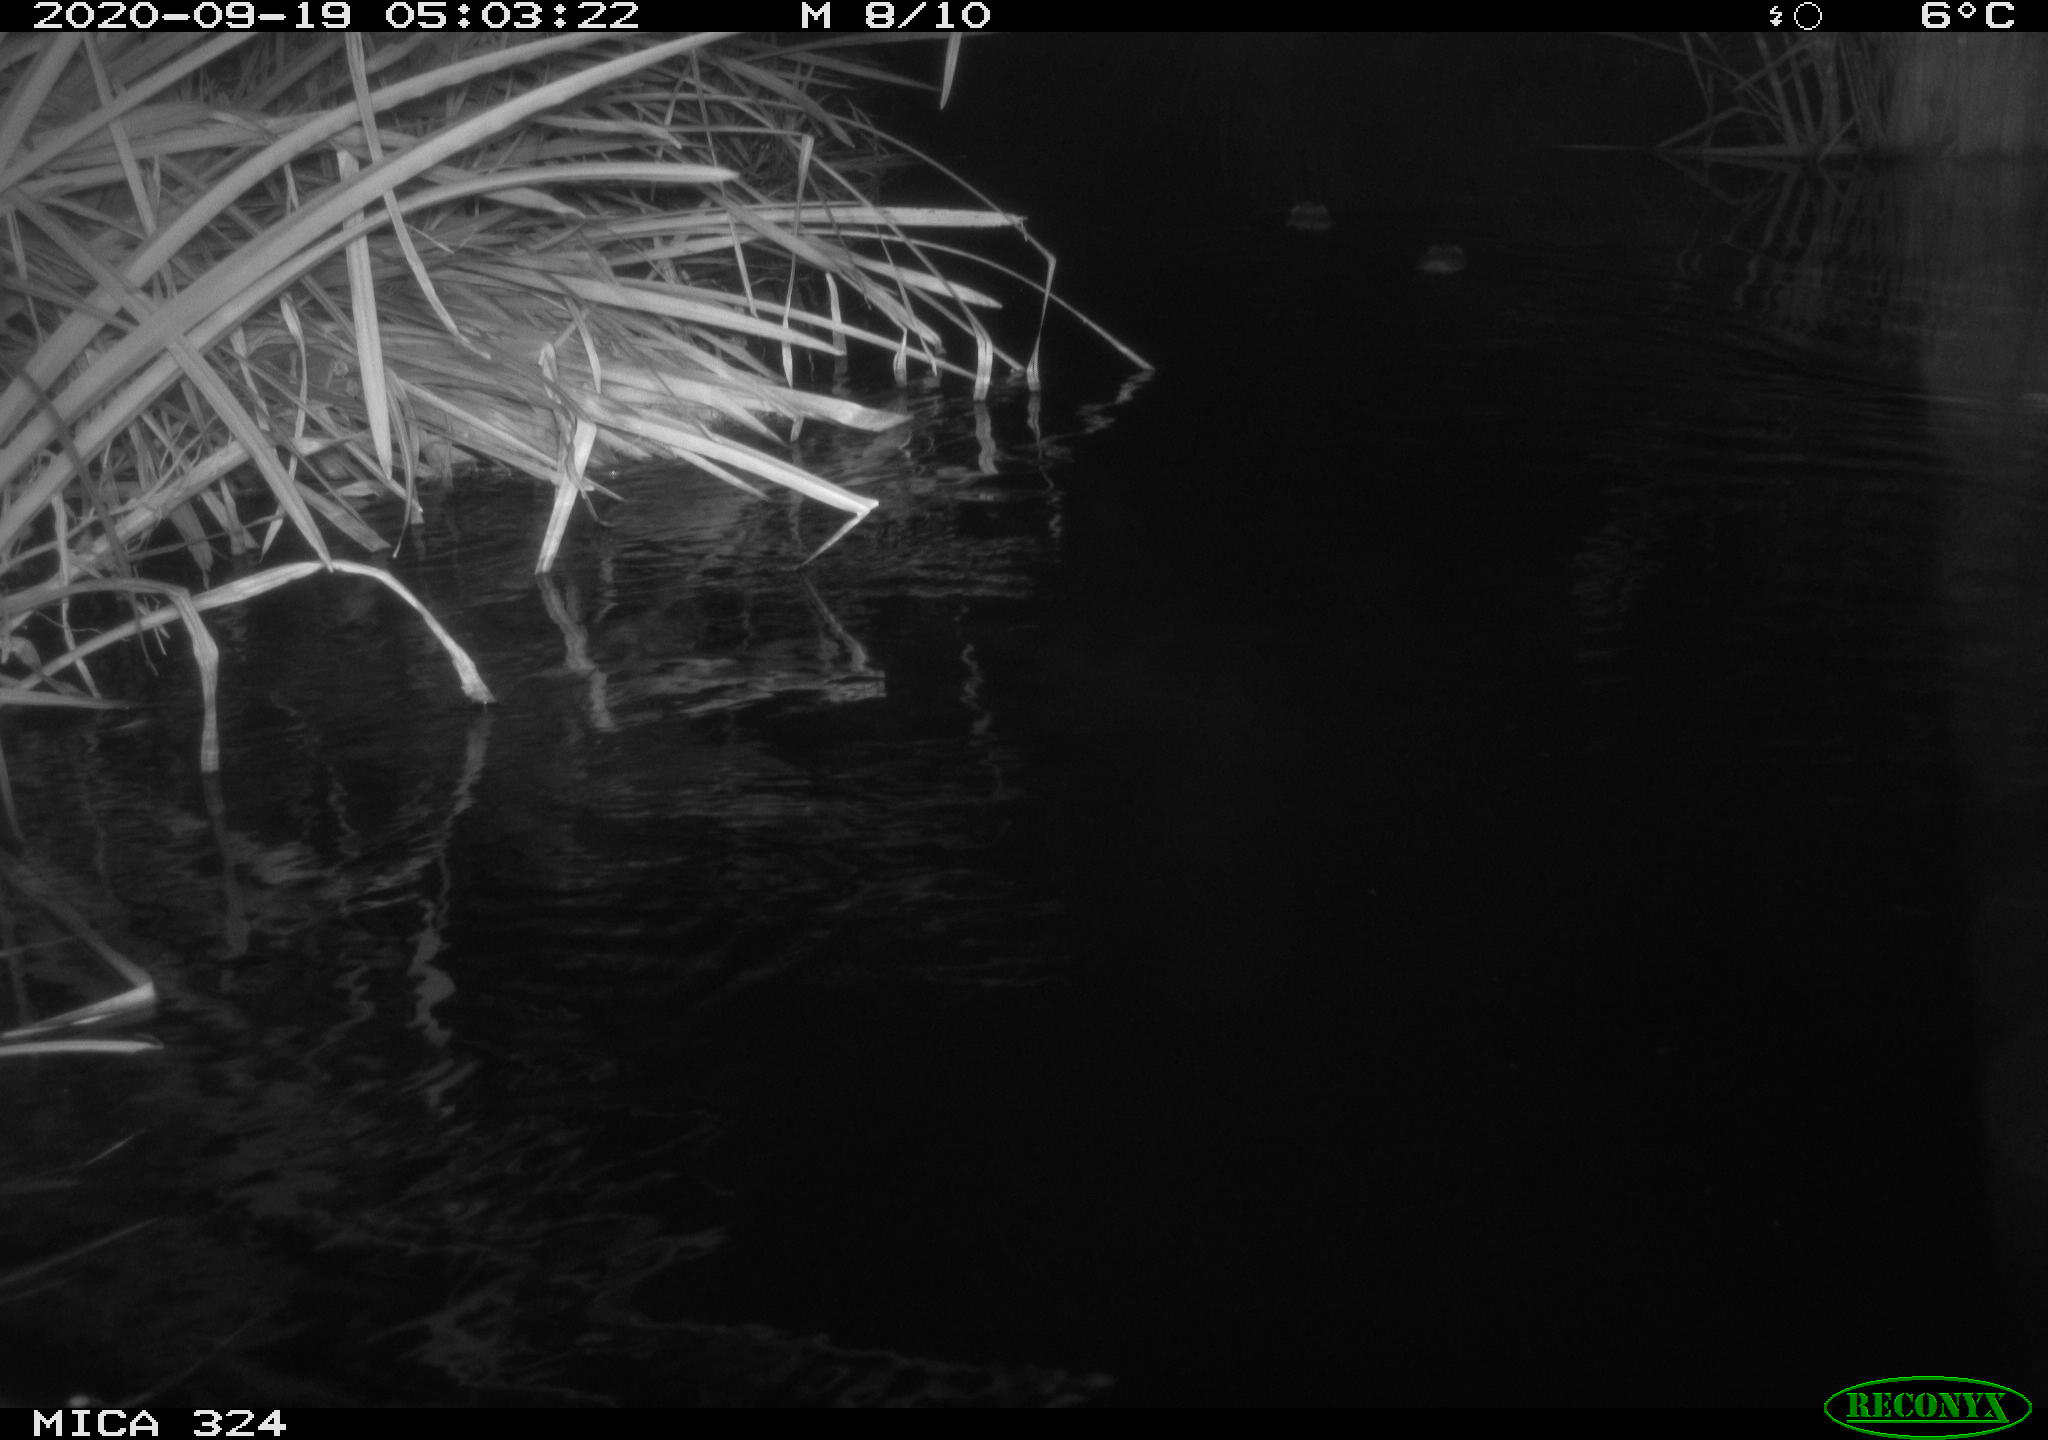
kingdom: Animalia
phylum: Chordata
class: Mammalia
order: Rodentia
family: Cricetidae
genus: Ondatra
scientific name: Ondatra zibethicus
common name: Muskrat
